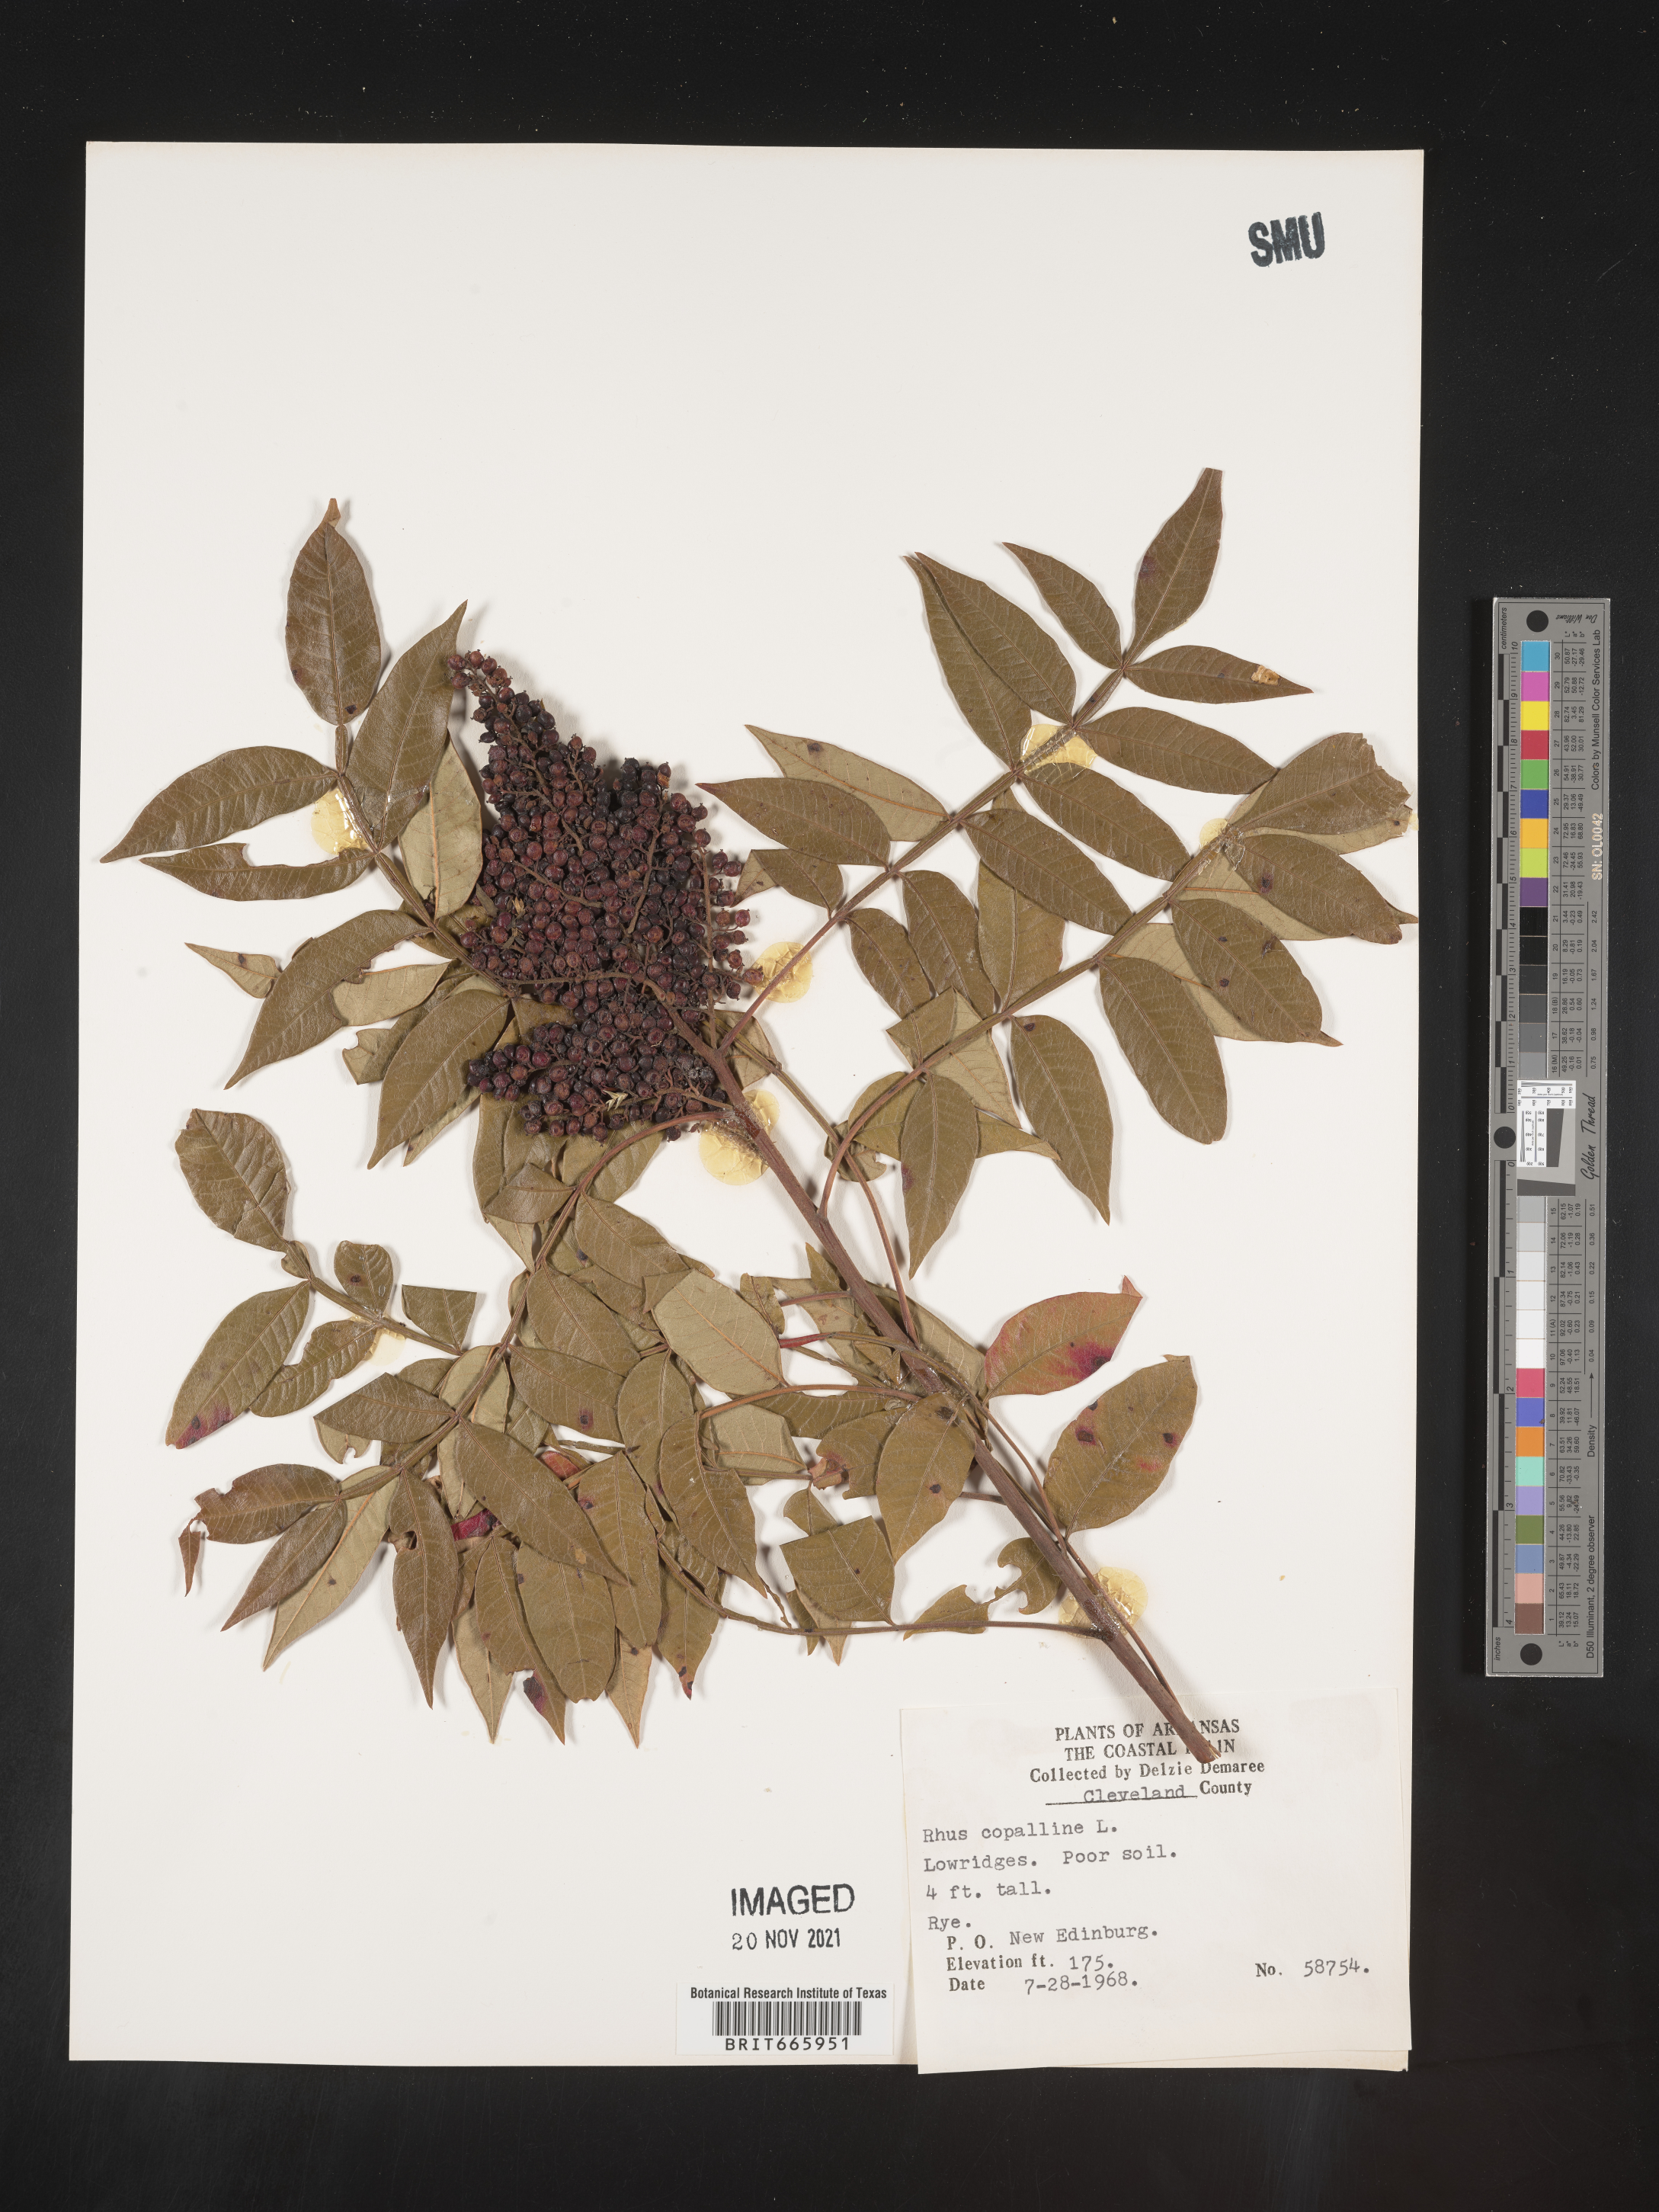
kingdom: Plantae
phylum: Tracheophyta
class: Magnoliopsida
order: Sapindales
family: Anacardiaceae
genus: Rhus
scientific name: Rhus copallina
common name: Shining sumac
